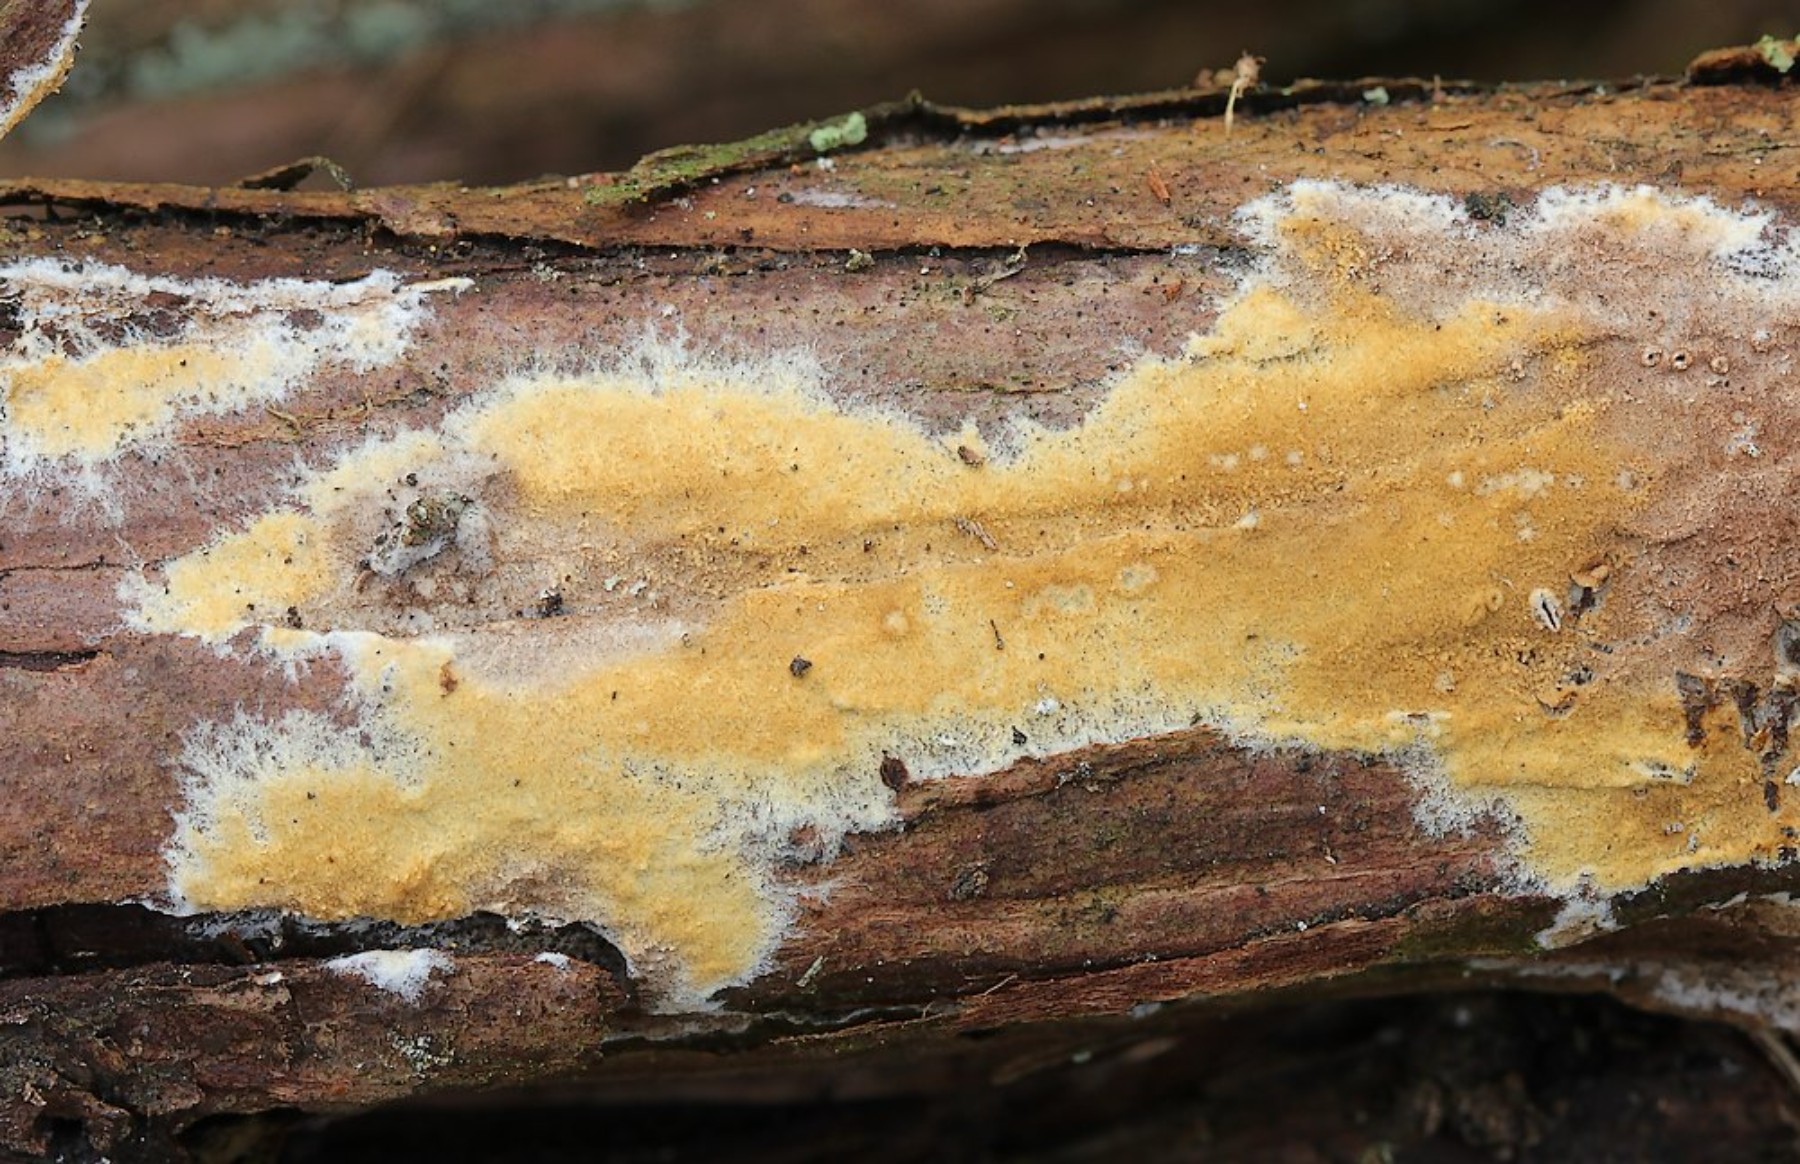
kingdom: Fungi
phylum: Basidiomycota
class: Agaricomycetes
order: Boletales
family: Coniophoraceae
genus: Coniophora
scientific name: Coniophora arida
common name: tynd tømmersvamp
